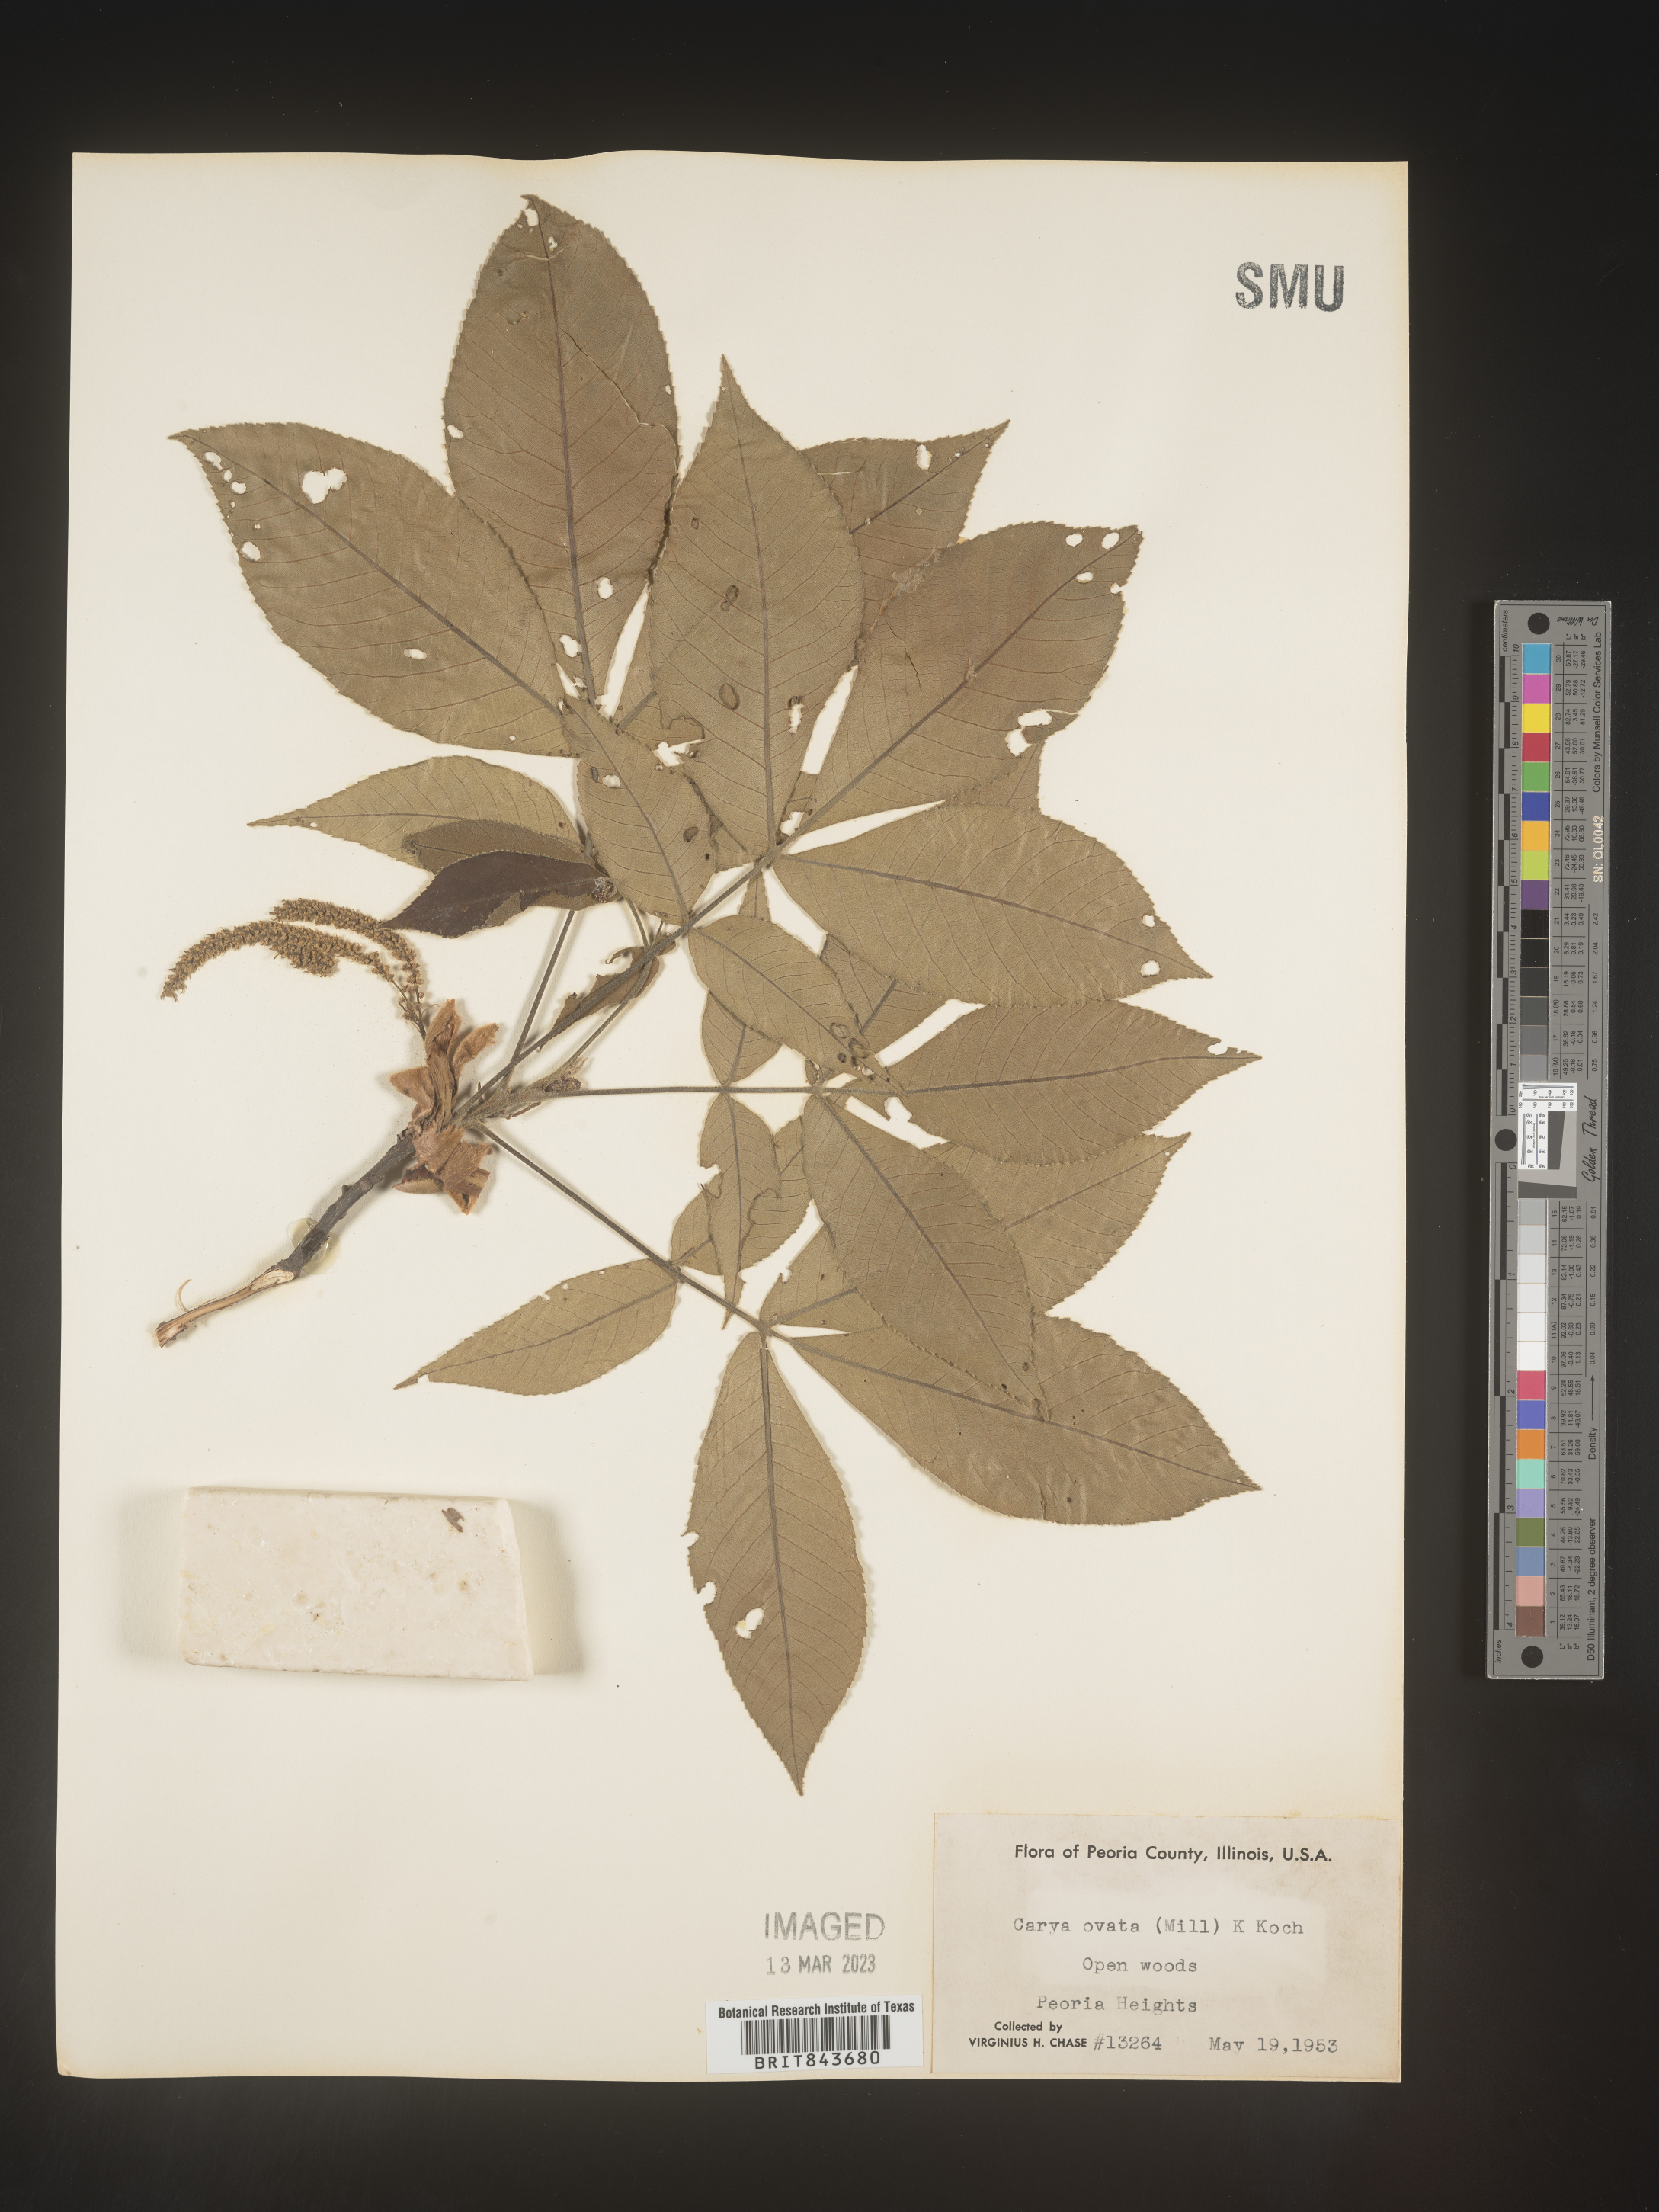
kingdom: Plantae
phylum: Tracheophyta
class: Magnoliopsida
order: Fagales
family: Juglandaceae
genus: Carya
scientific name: Carya ovata
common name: Shagbark hickory
